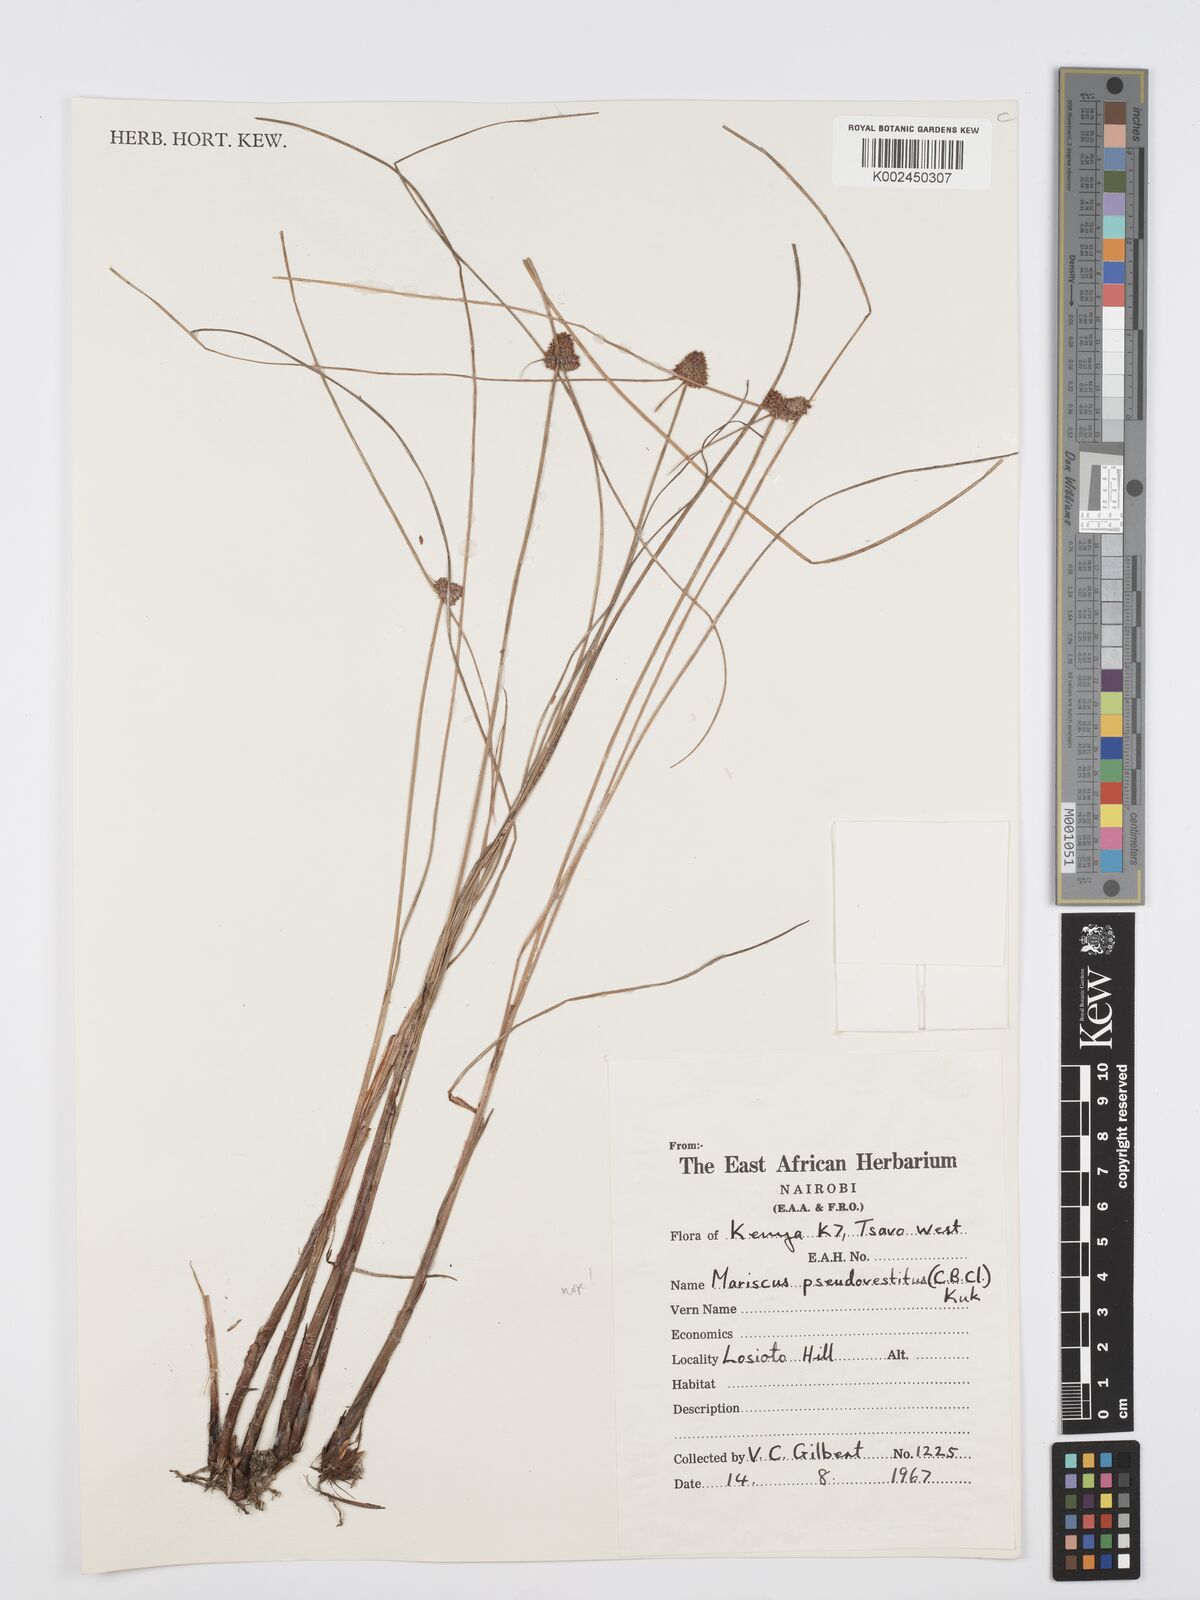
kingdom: Plantae
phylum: Tracheophyta
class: Liliopsida
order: Poales
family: Cyperaceae
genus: Cyperus
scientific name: Cyperus
